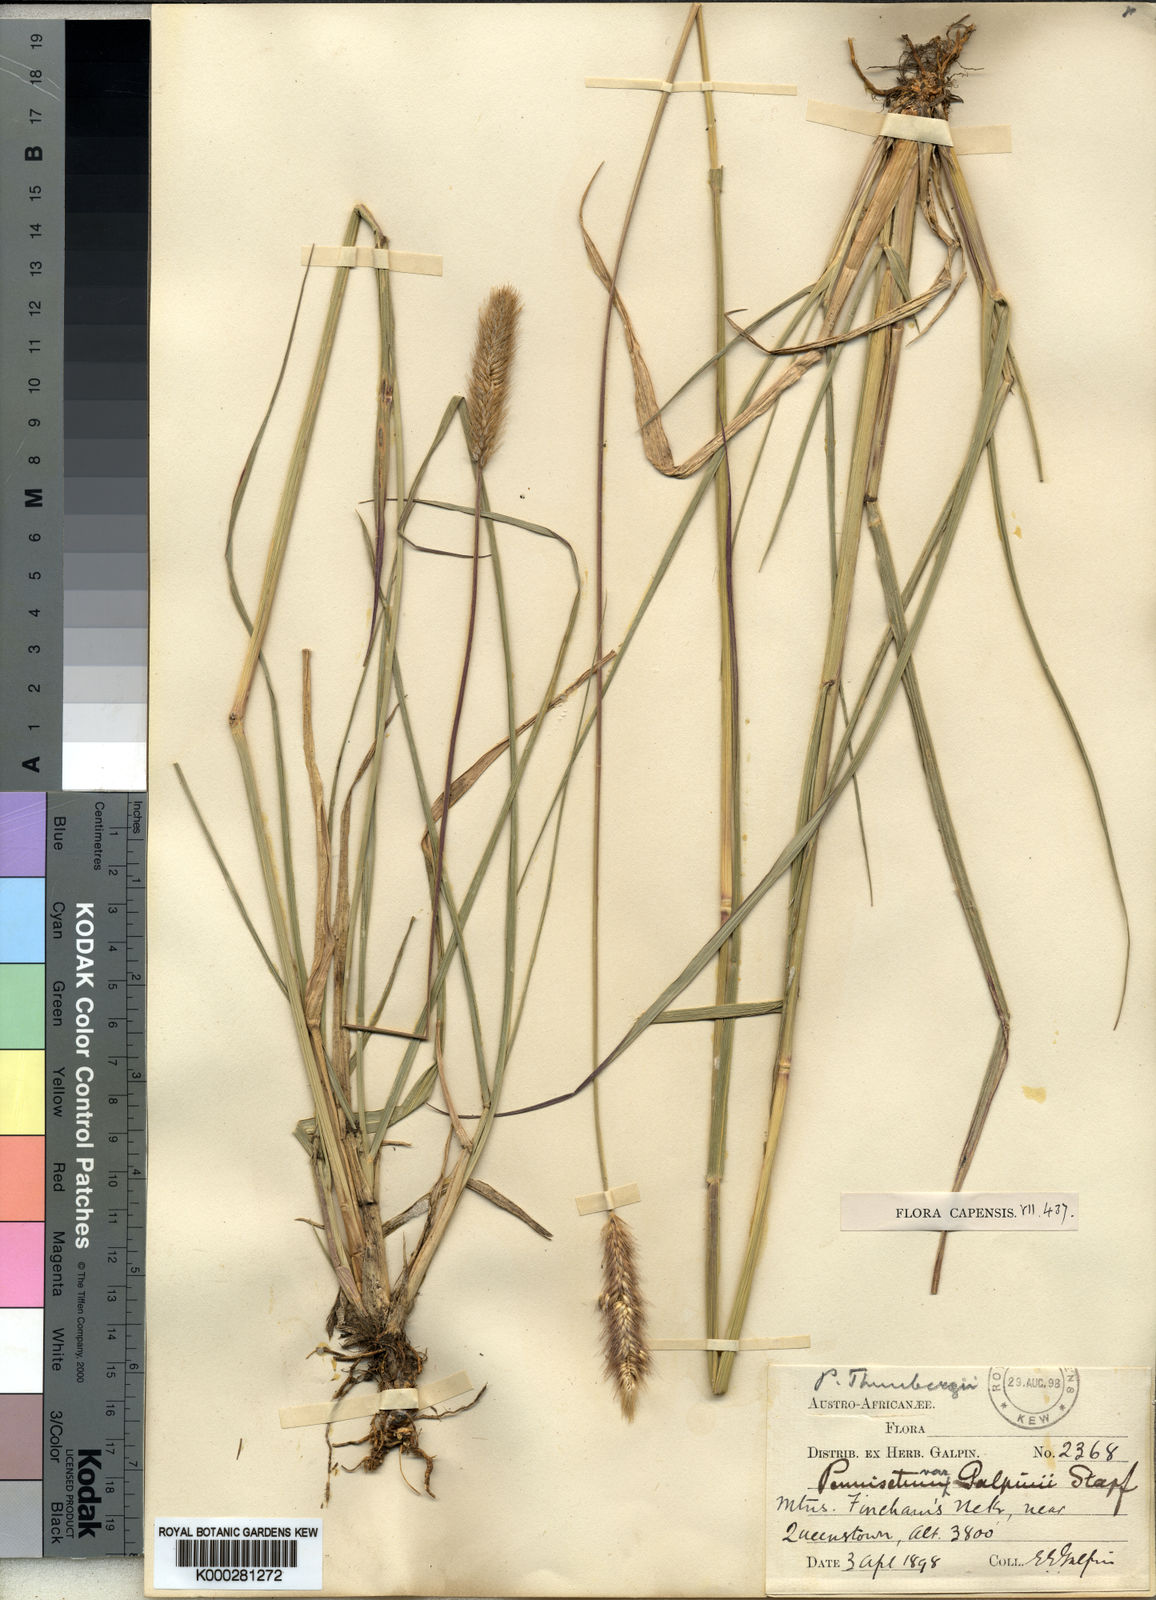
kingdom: Plantae
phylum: Tracheophyta
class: Liliopsida
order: Poales
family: Poaceae
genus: Cenchrus
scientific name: Cenchrus geniculatus
